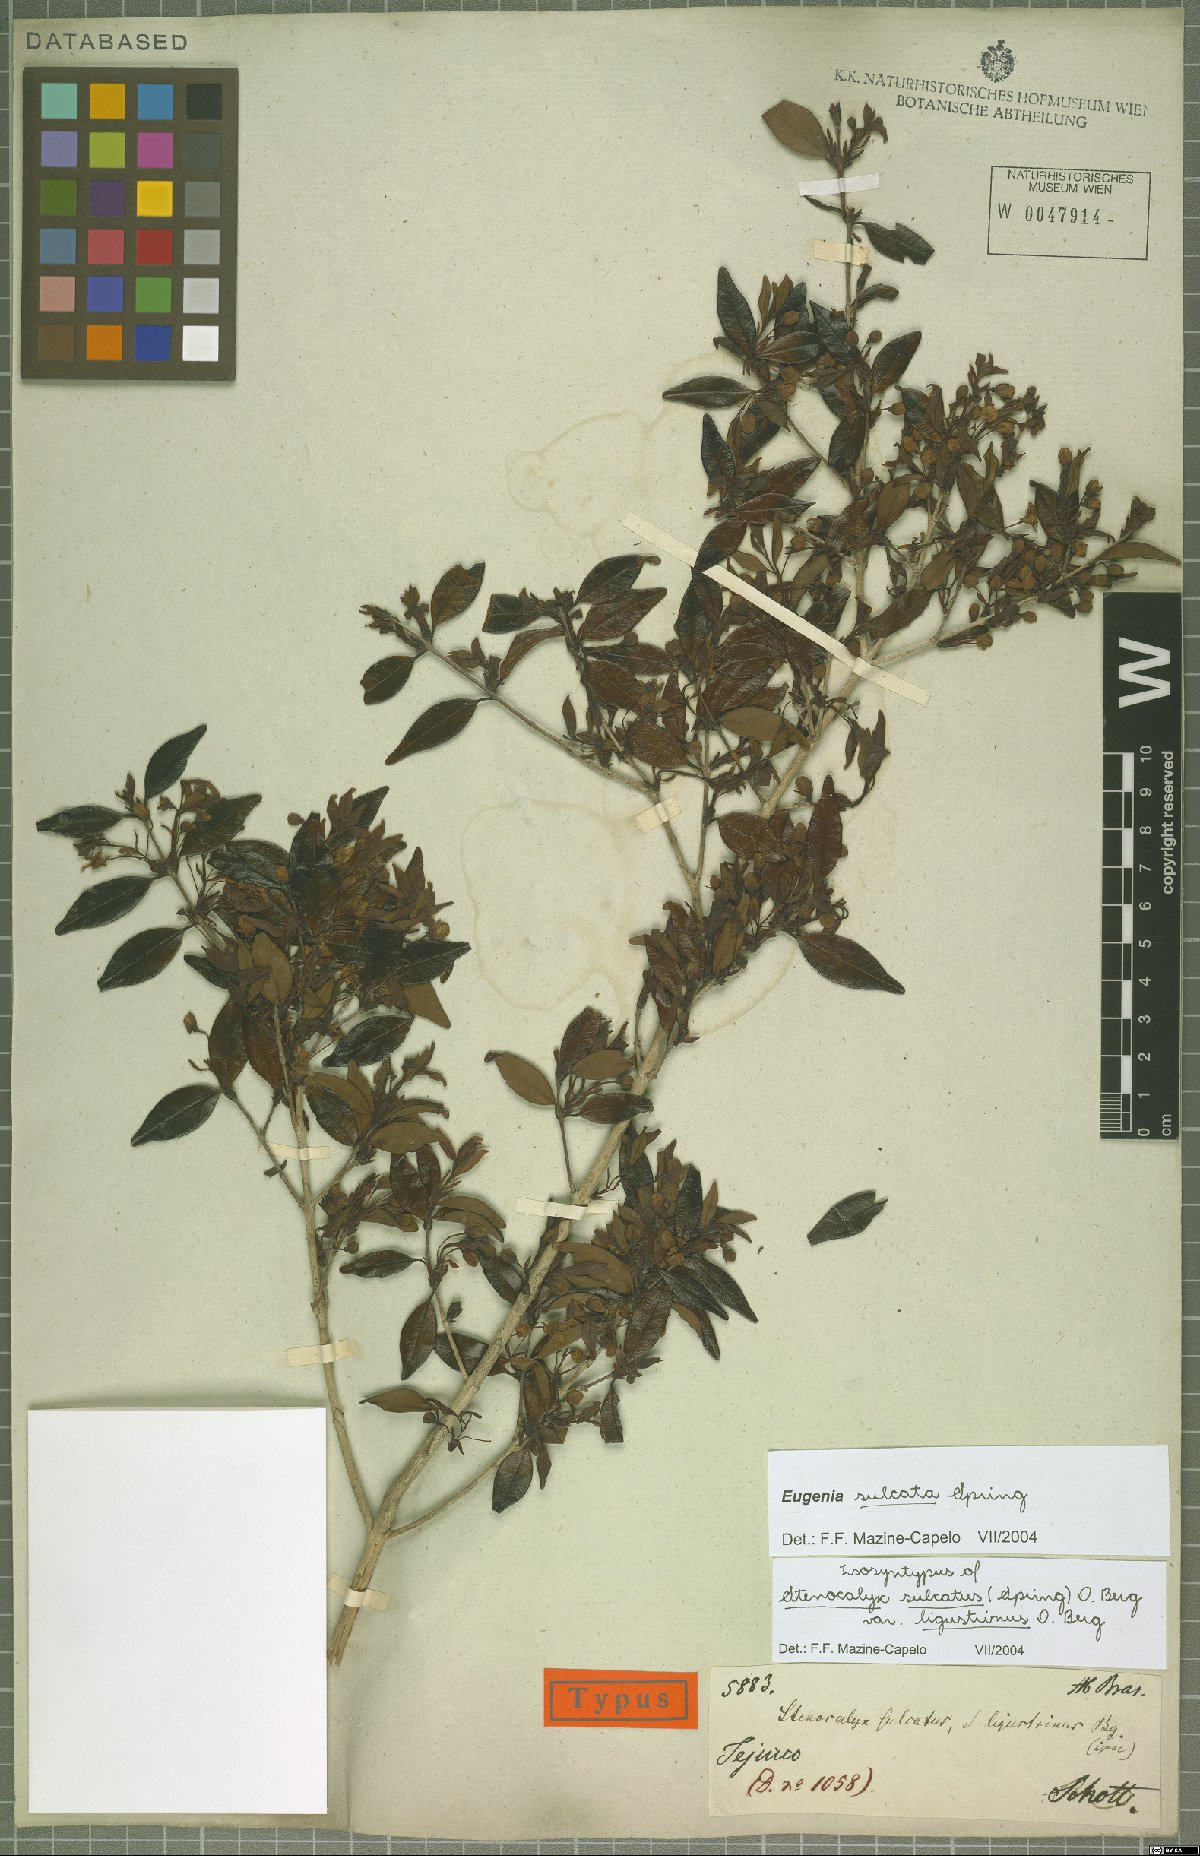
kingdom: Plantae
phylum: Tracheophyta
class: Magnoliopsida
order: Myrtales
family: Myrtaceae
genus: Eugenia
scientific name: Eugenia sulcata
